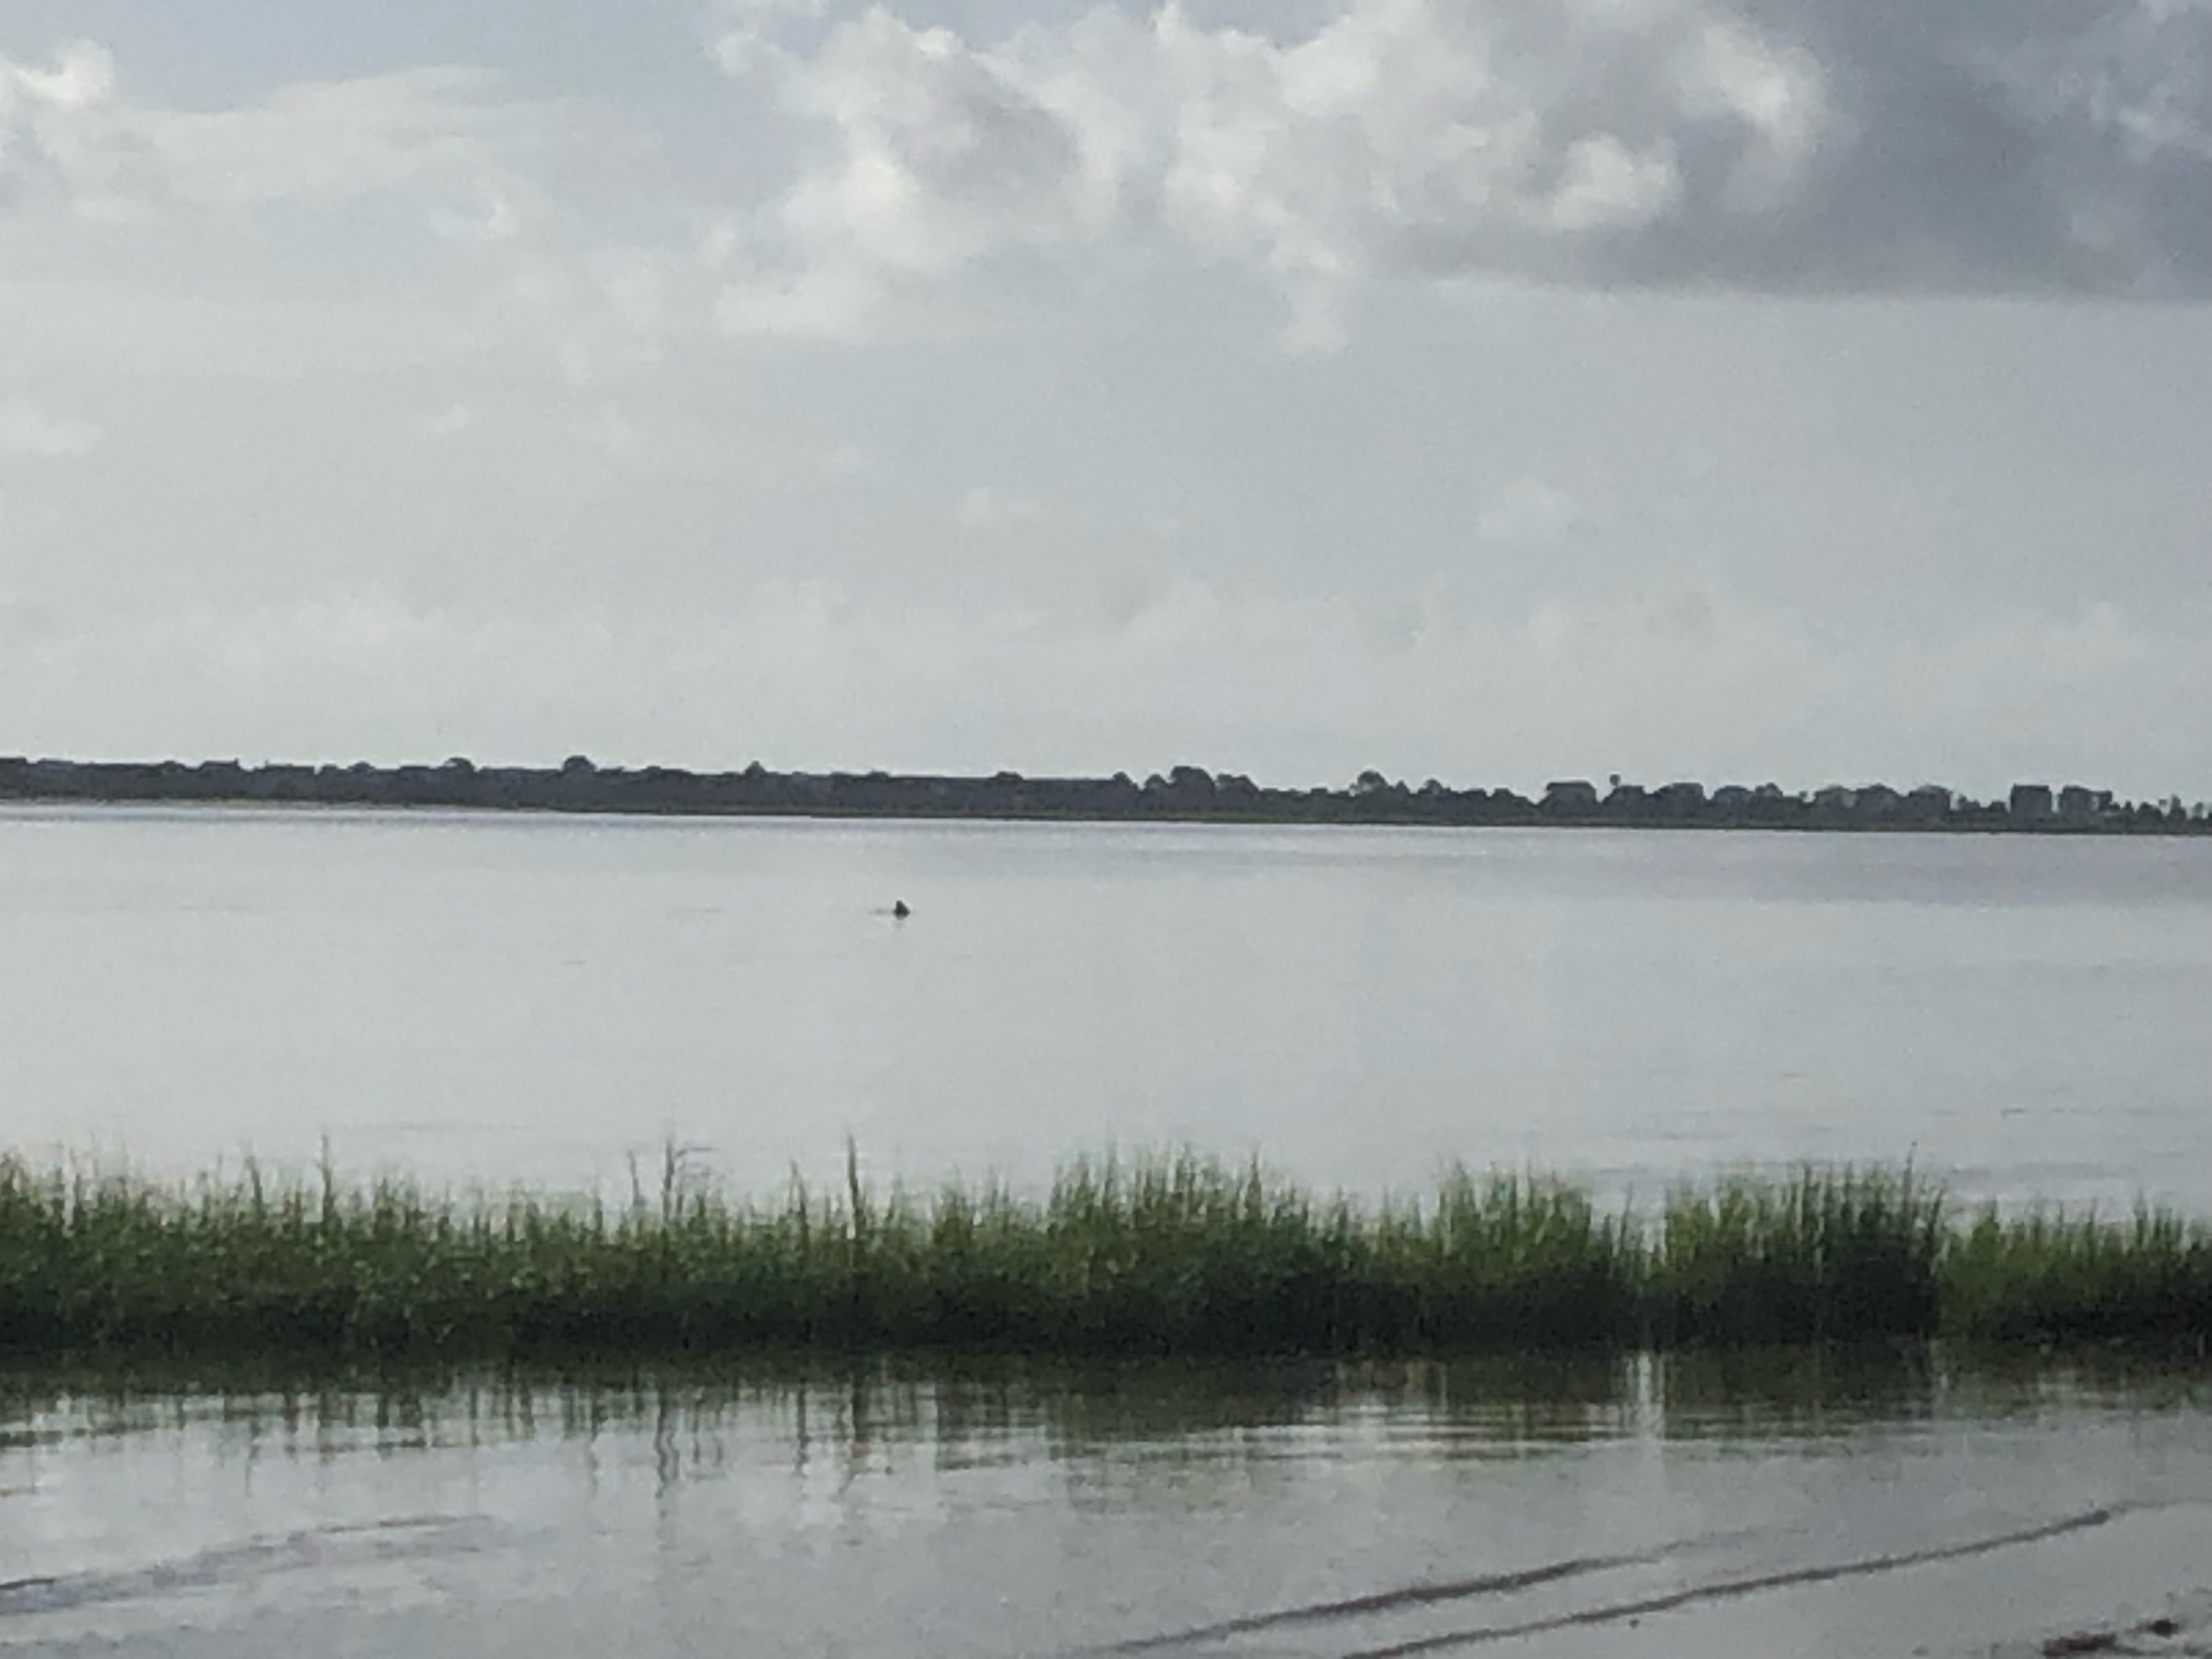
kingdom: Animalia
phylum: Chordata
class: Mammalia
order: Cetacea
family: Delphinidae
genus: Tursiops
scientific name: Tursiops truncatus
